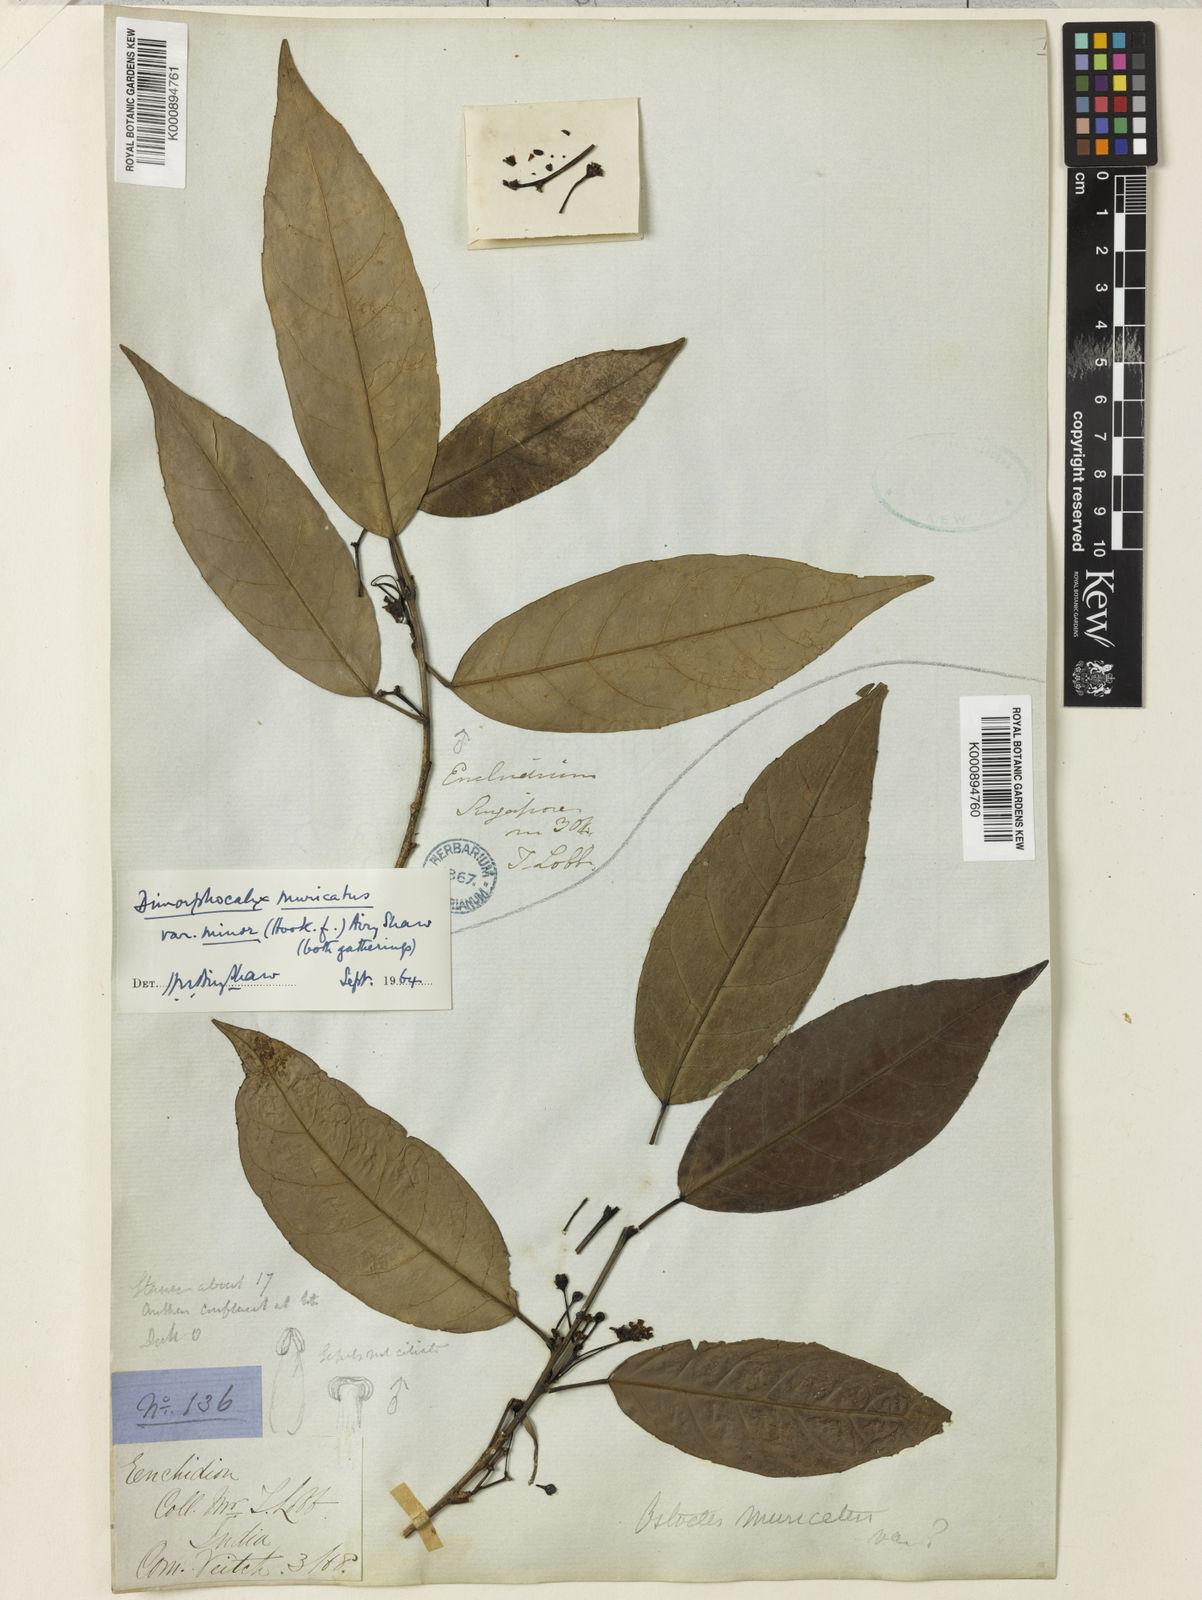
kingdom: Plantae
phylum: Tracheophyta
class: Magnoliopsida
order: Malpighiales
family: Euphorbiaceae
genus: Tritaxis
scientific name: Tritaxis muricata
